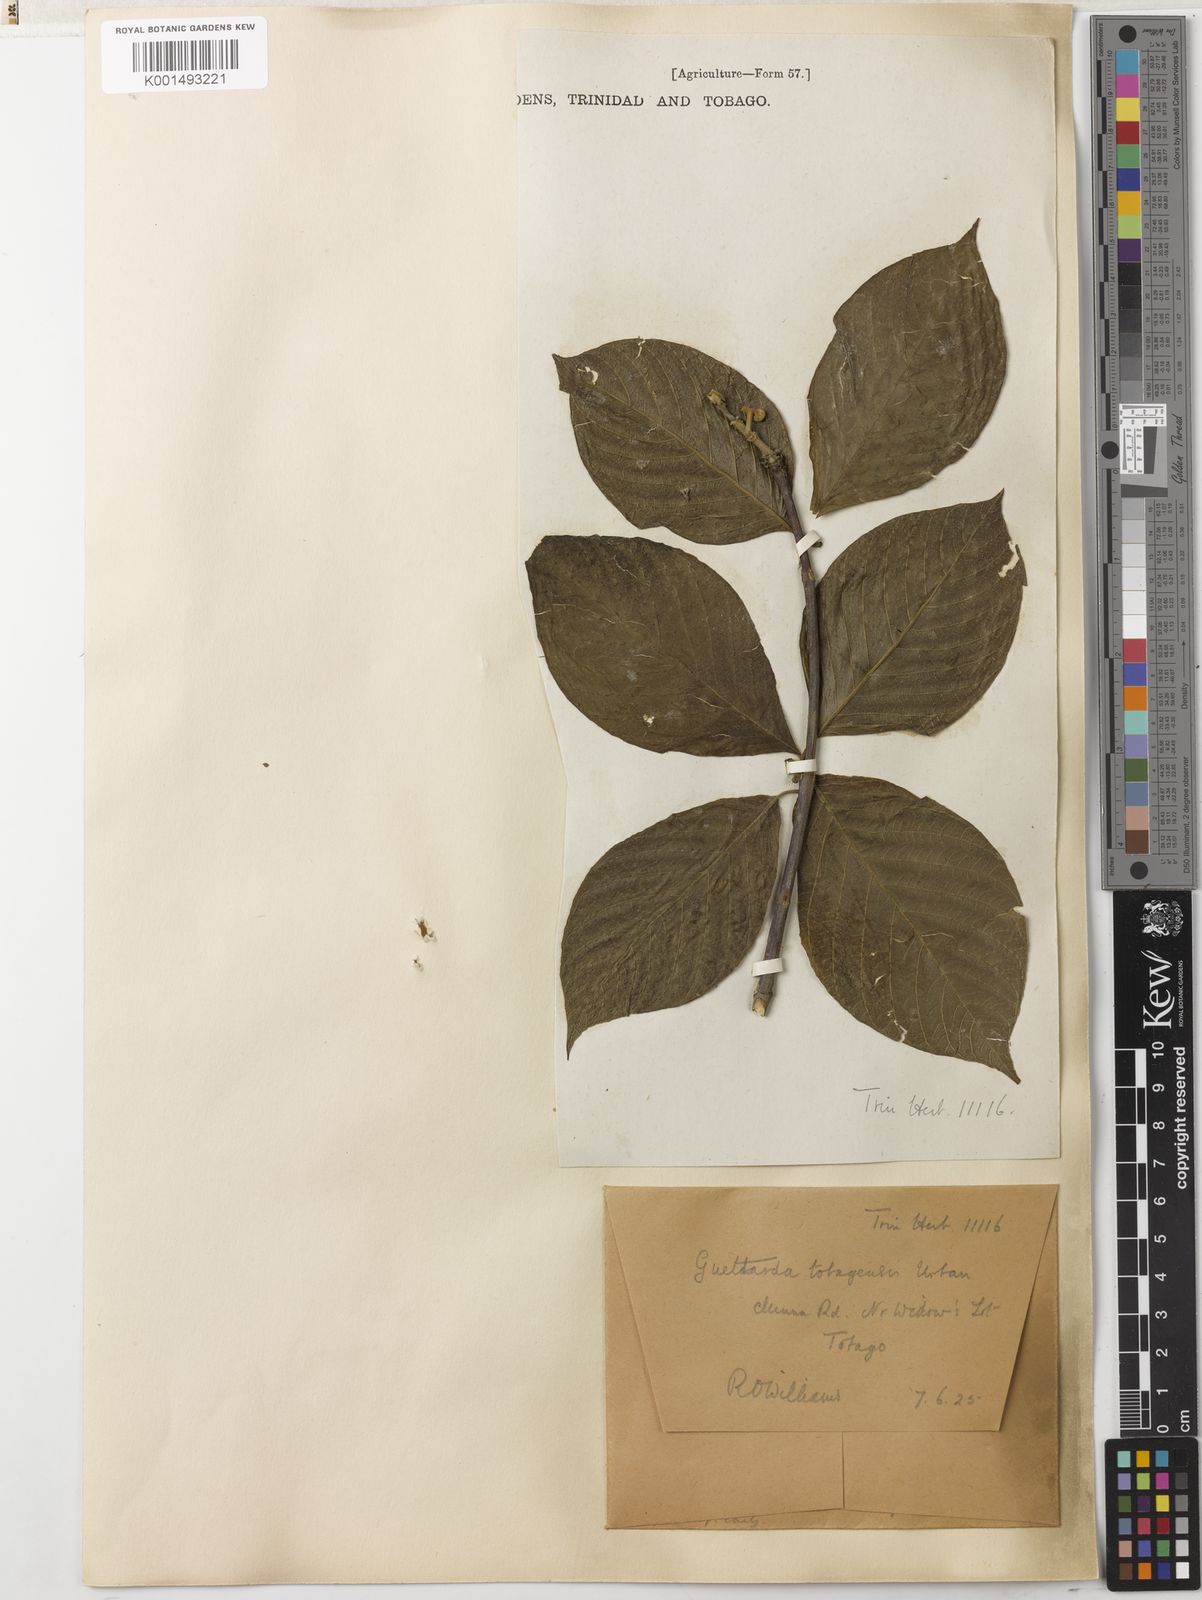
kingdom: Plantae
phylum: Tracheophyta
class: Magnoliopsida
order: Gentianales
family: Rubiaceae
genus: Guettarda
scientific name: Guettarda tobagensis
